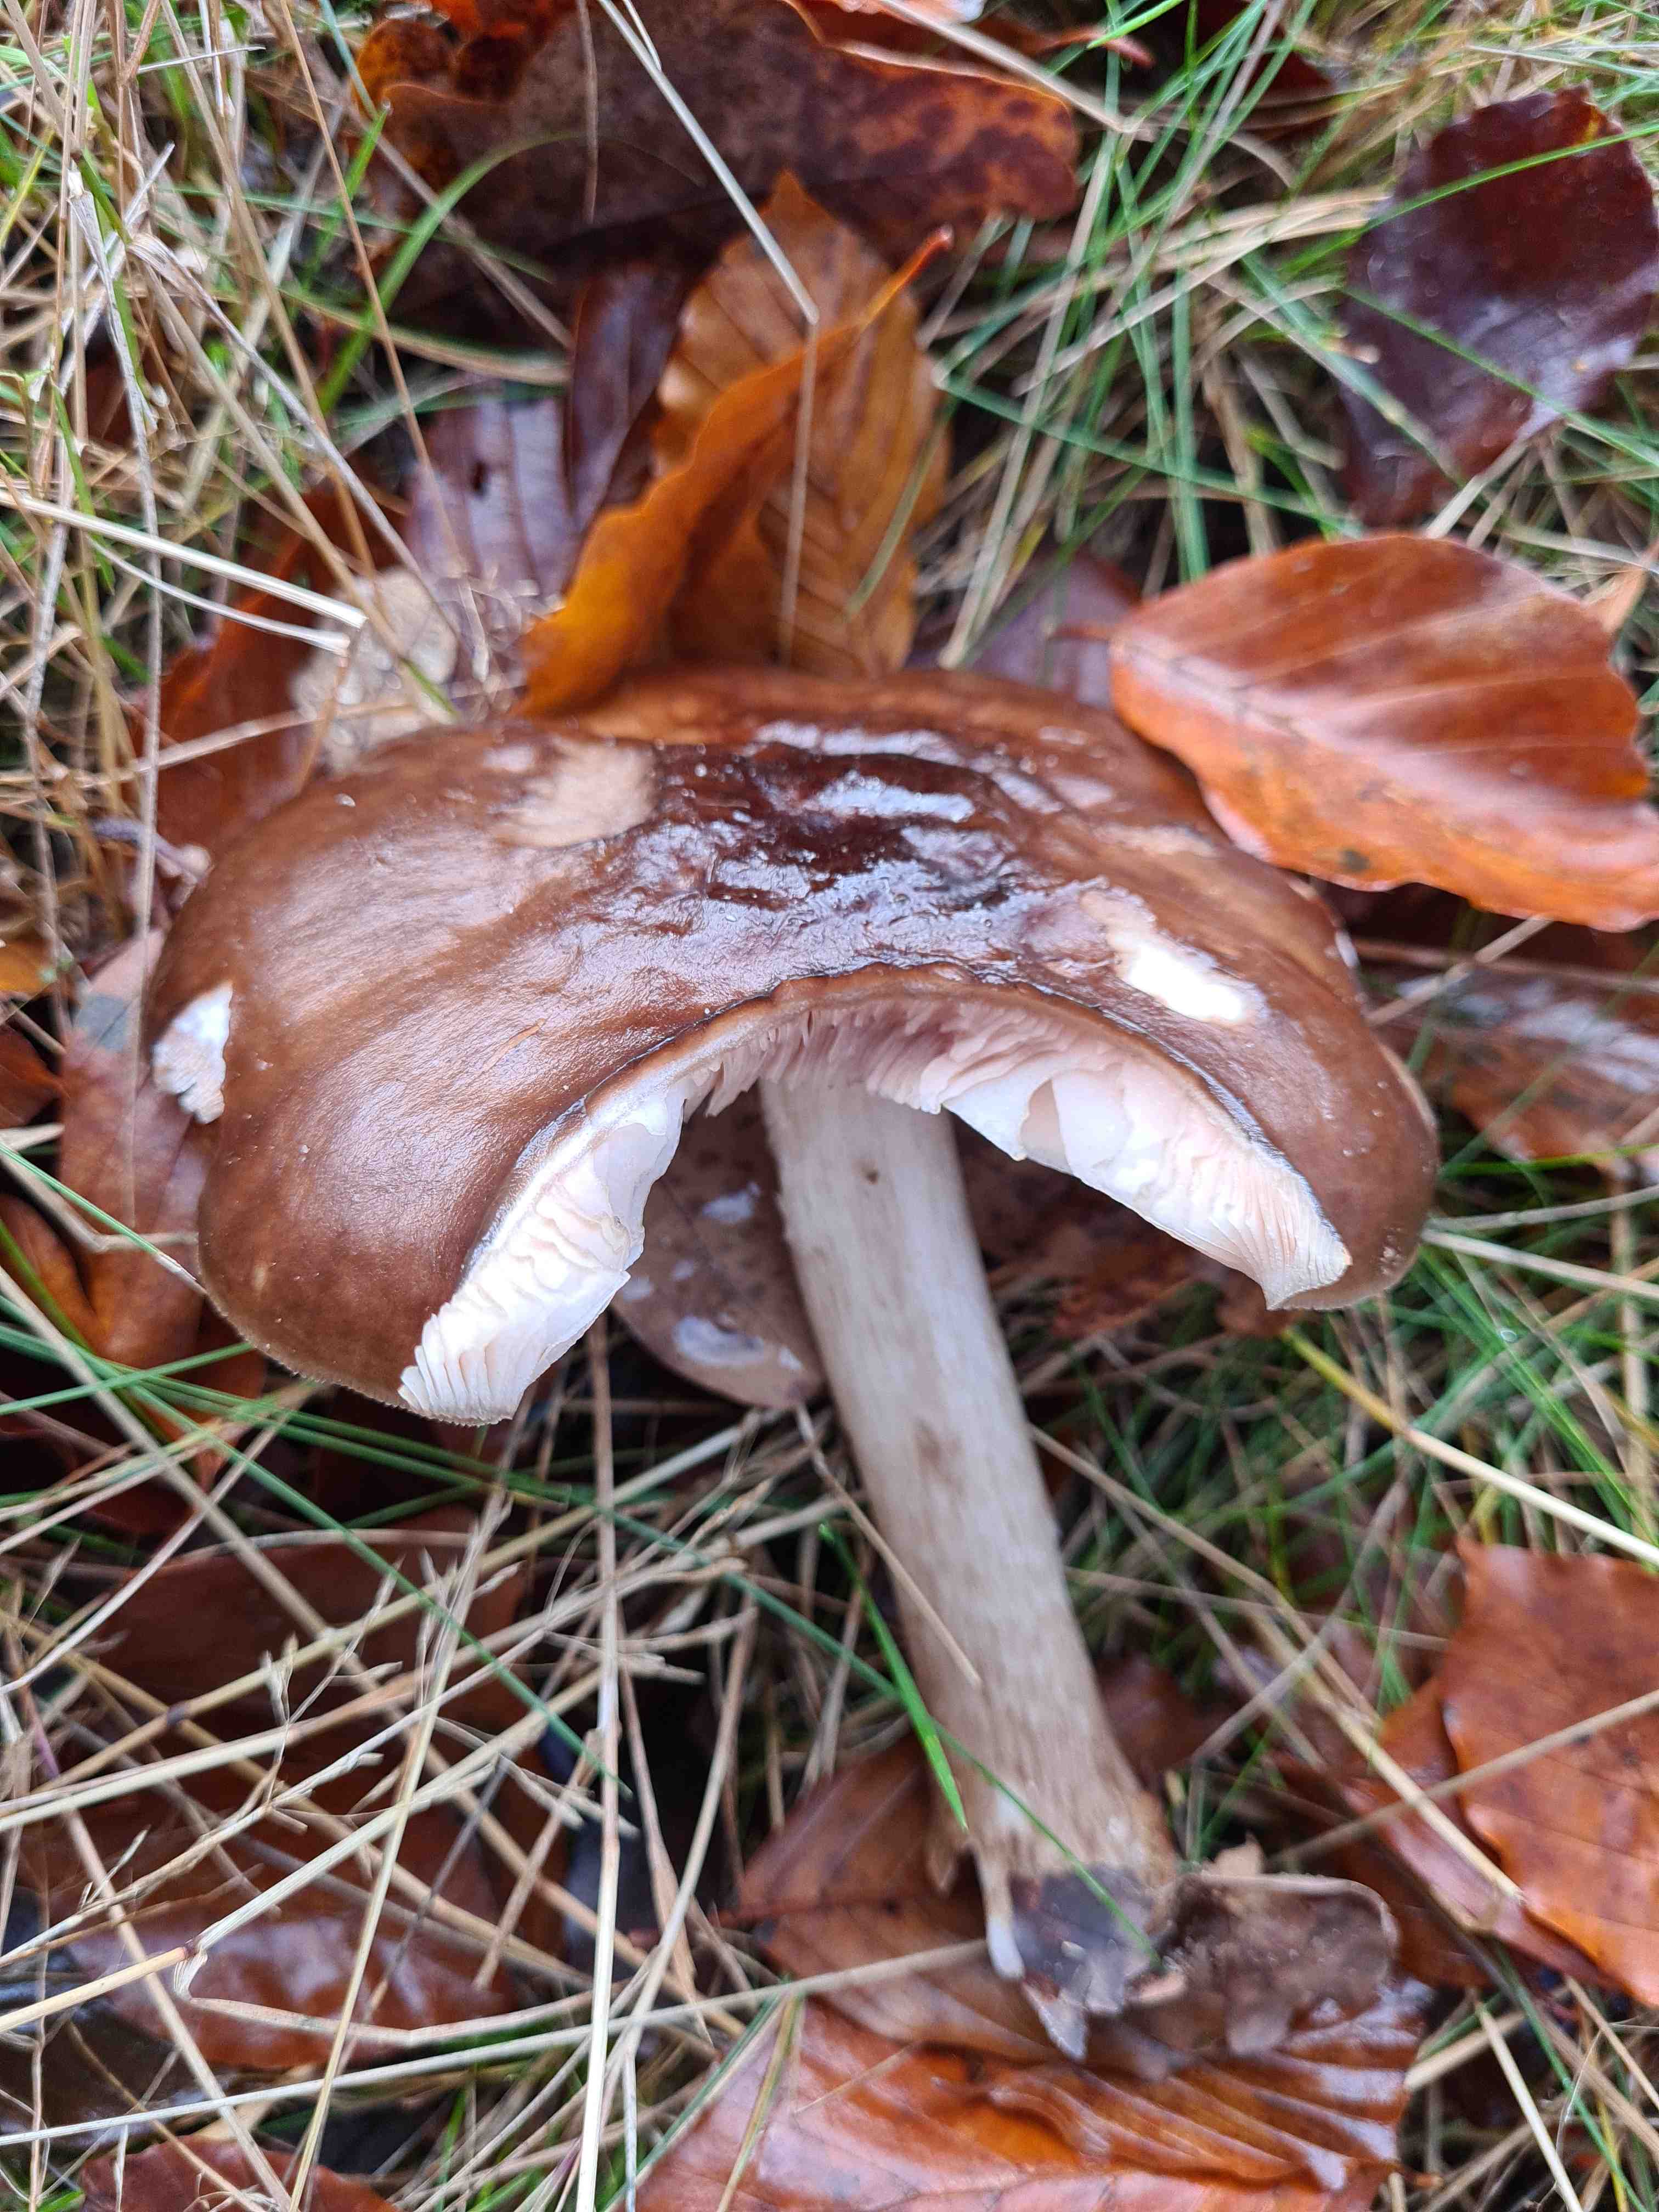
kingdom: Fungi
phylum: Basidiomycota
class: Agaricomycetes
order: Agaricales
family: Pluteaceae
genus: Pluteus
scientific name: Pluteus cervinus
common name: sodfarvet skærmhat
